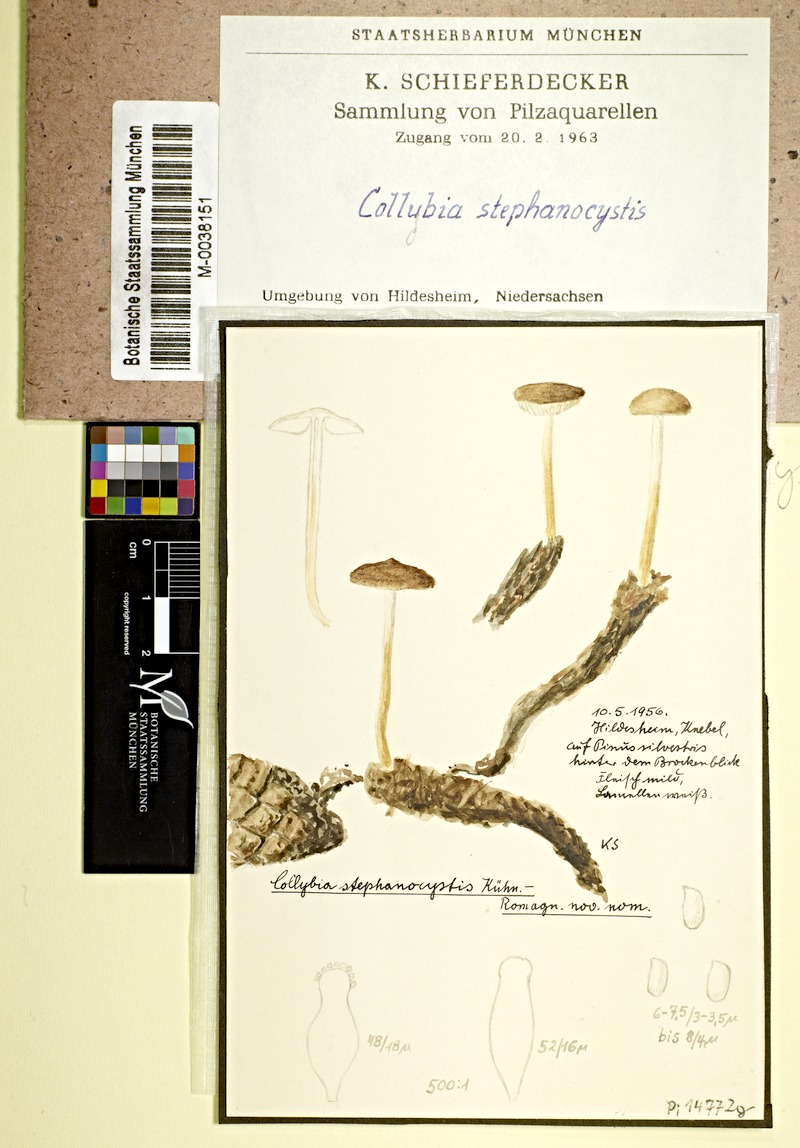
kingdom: Fungi
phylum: Basidiomycota
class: Agaricomycetes
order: Agaricales
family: Physalacriaceae
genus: Strobilurus
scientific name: Strobilurus stephanocystis
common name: Russian conecap
